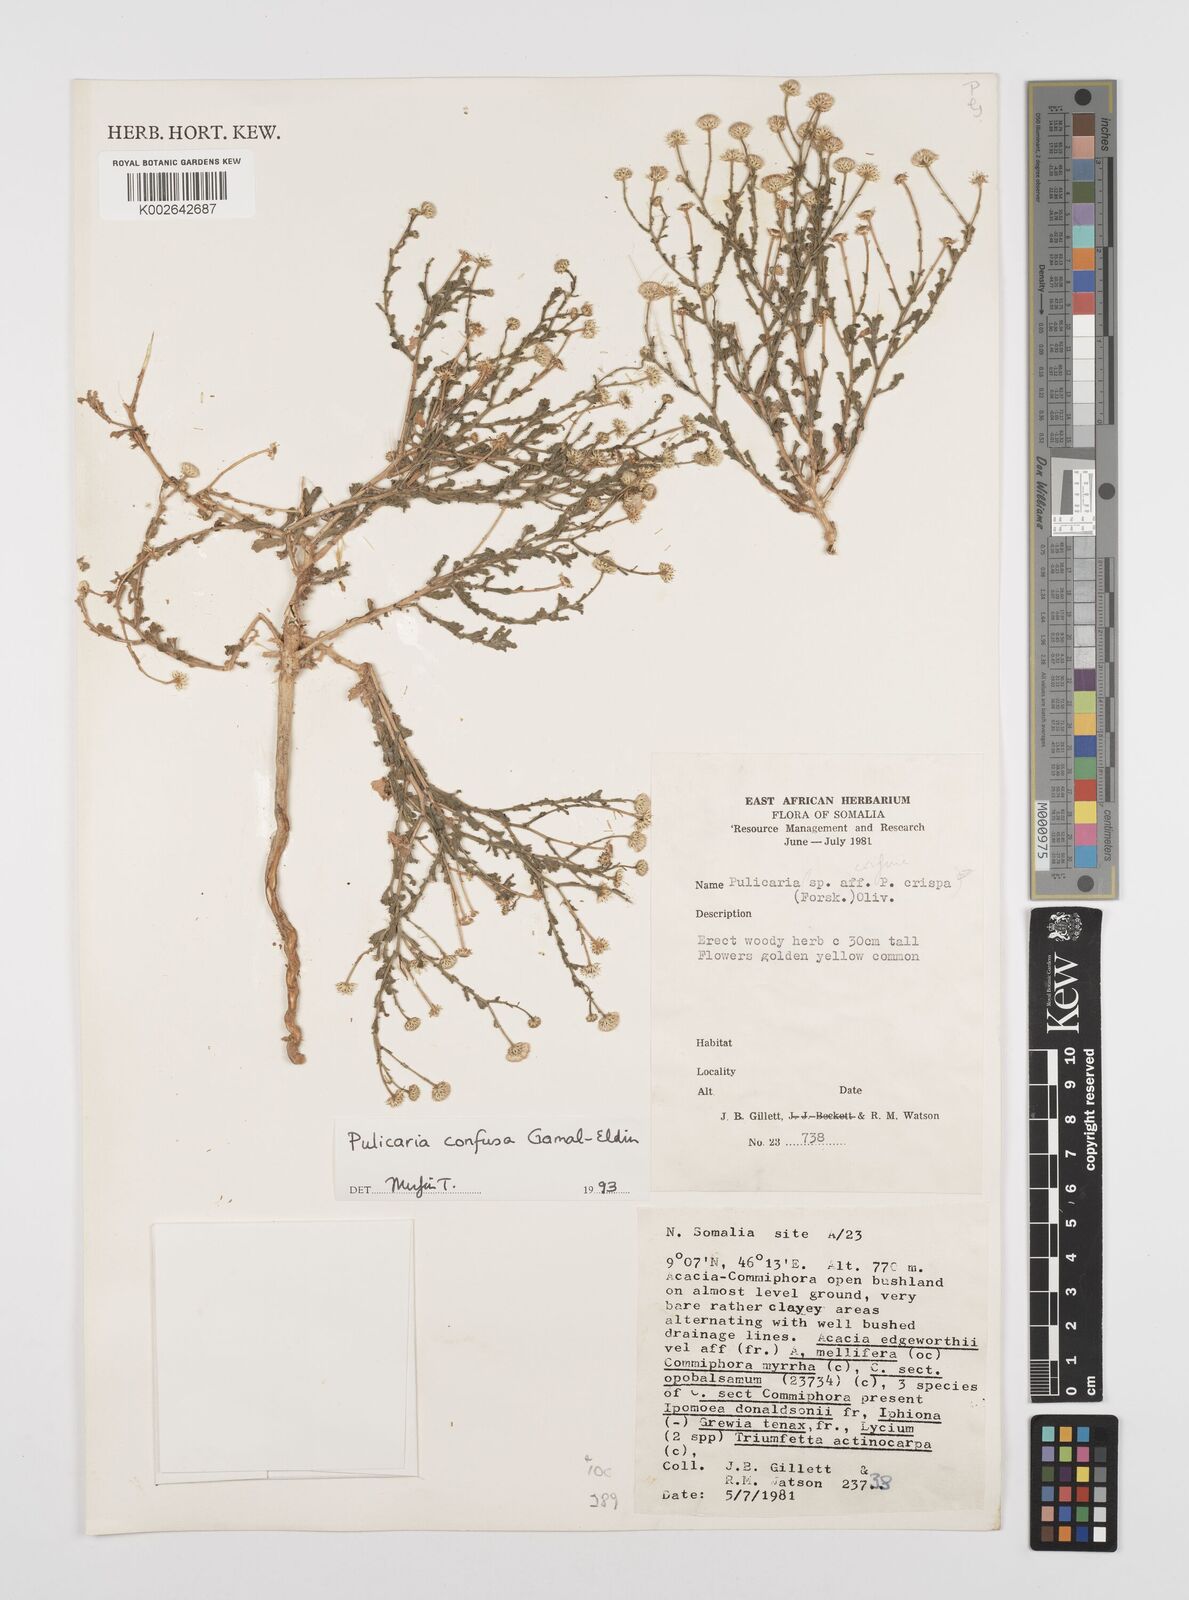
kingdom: Plantae
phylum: Tracheophyta
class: Magnoliopsida
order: Asterales
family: Asteraceae
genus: Pulicaria
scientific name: Pulicaria confusa
